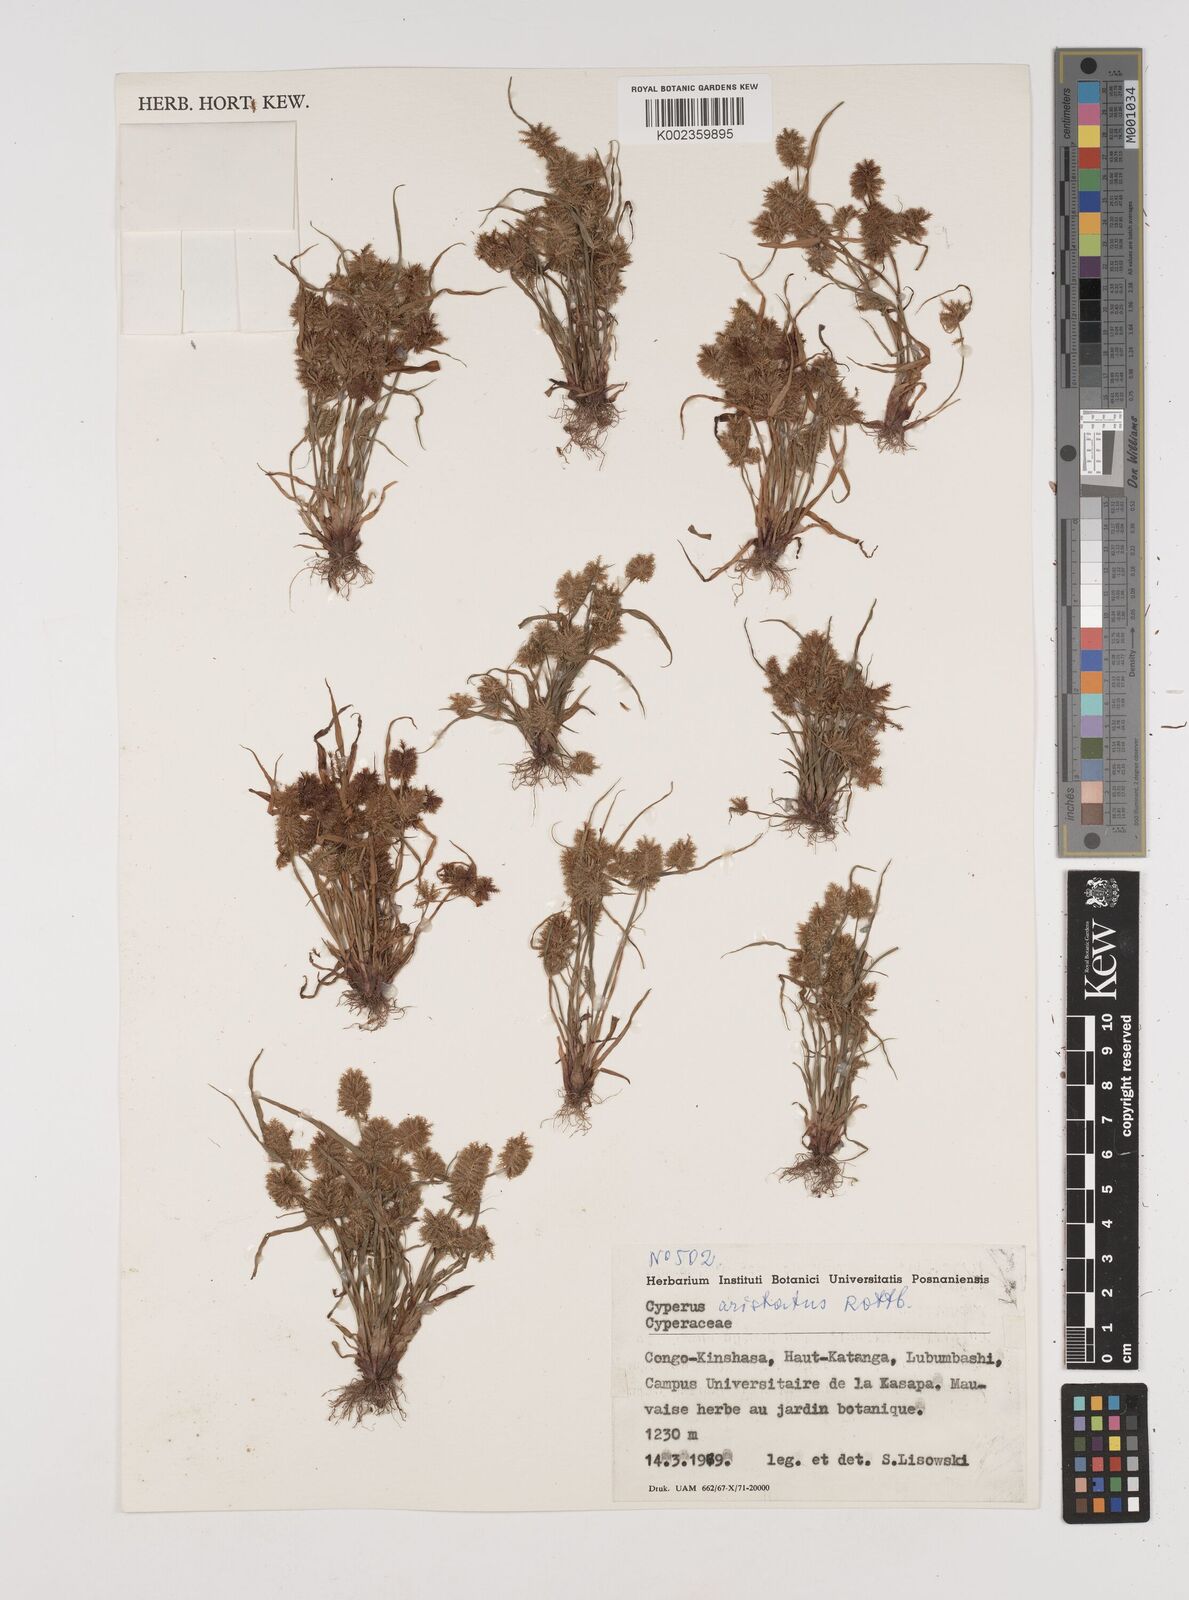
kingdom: Plantae
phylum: Tracheophyta
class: Liliopsida
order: Poales
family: Cyperaceae
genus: Cyperus
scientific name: Cyperus squarrosus
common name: Awned cyperus
